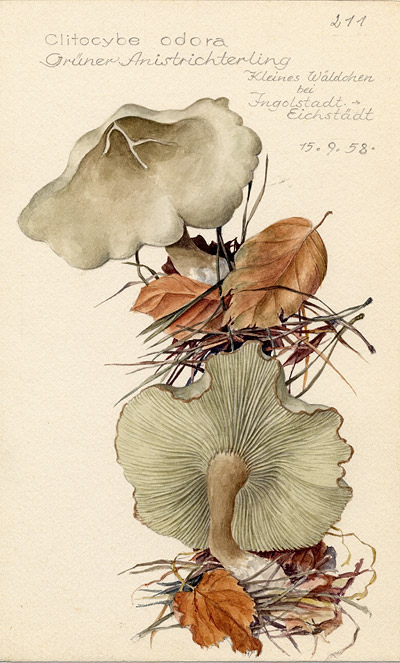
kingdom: Fungi
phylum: Basidiomycota
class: Agaricomycetes
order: Agaricales
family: Tricholomataceae
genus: Clitocybe
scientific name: Clitocybe odora
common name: Aniseed funnel
